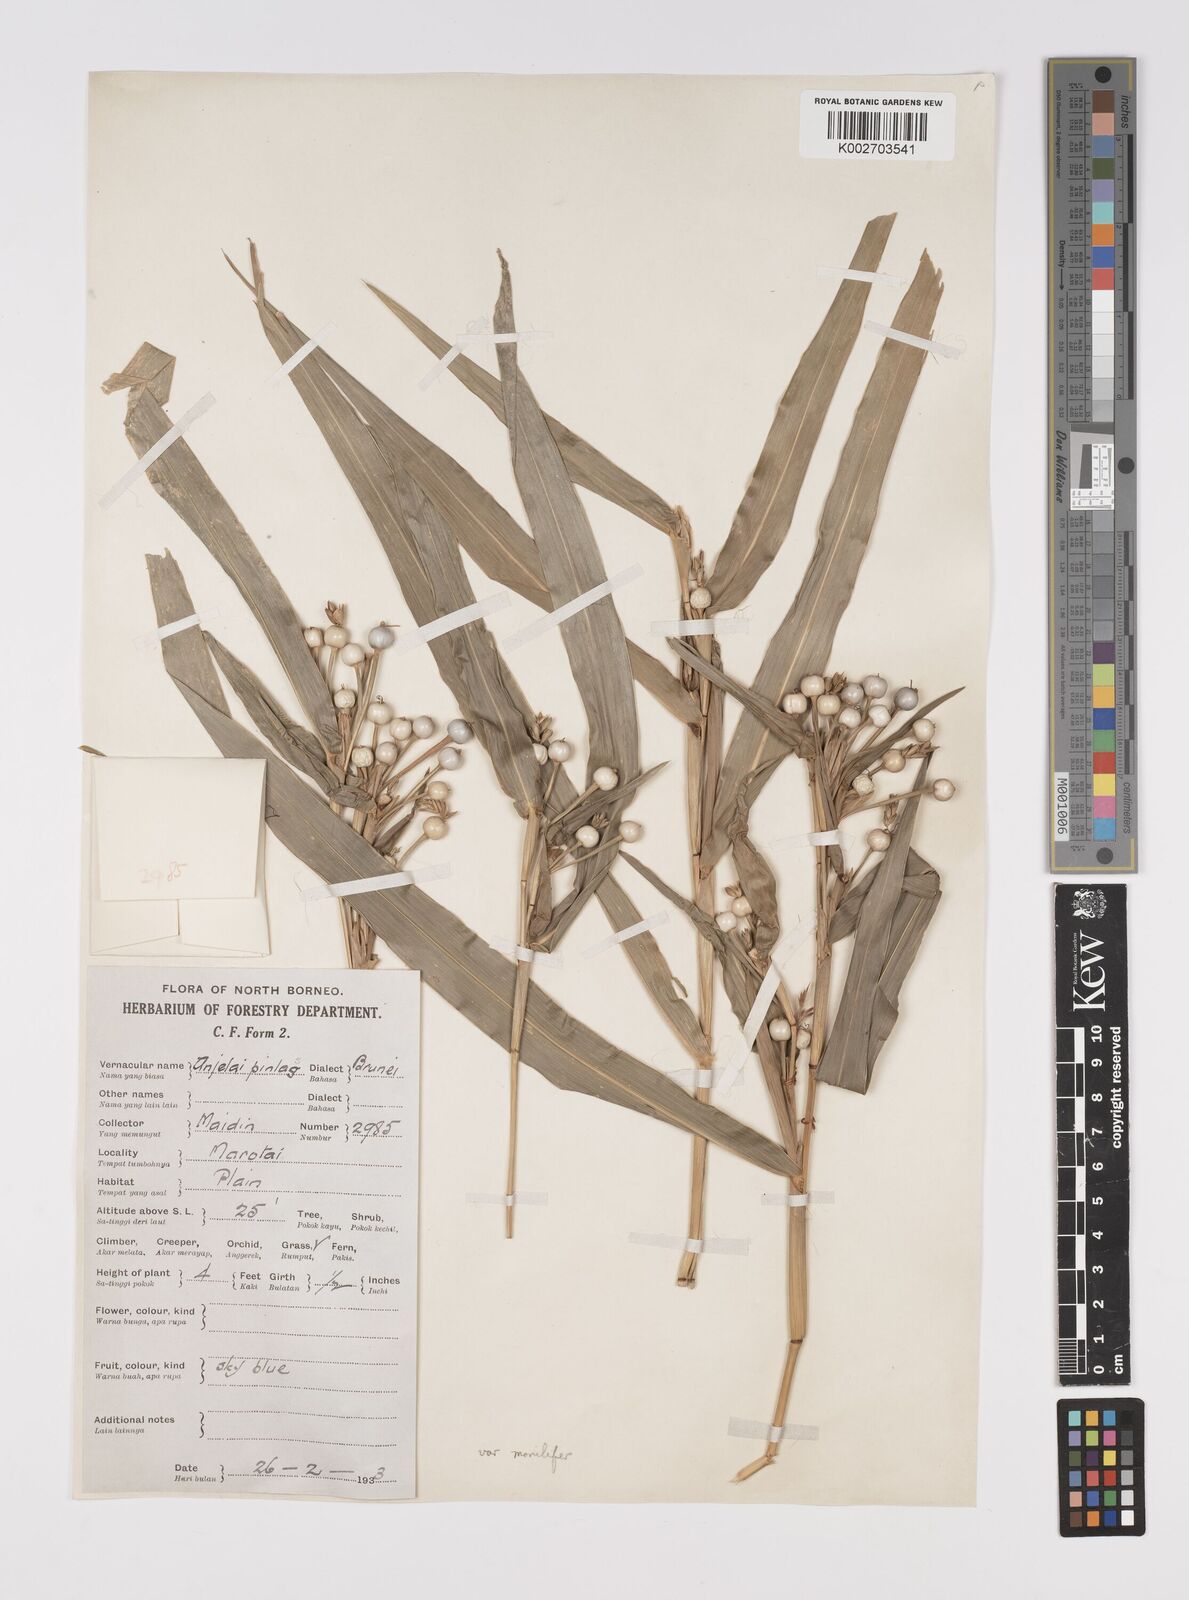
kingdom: Plantae
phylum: Tracheophyta
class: Liliopsida
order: Poales
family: Poaceae
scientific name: Poaceae
